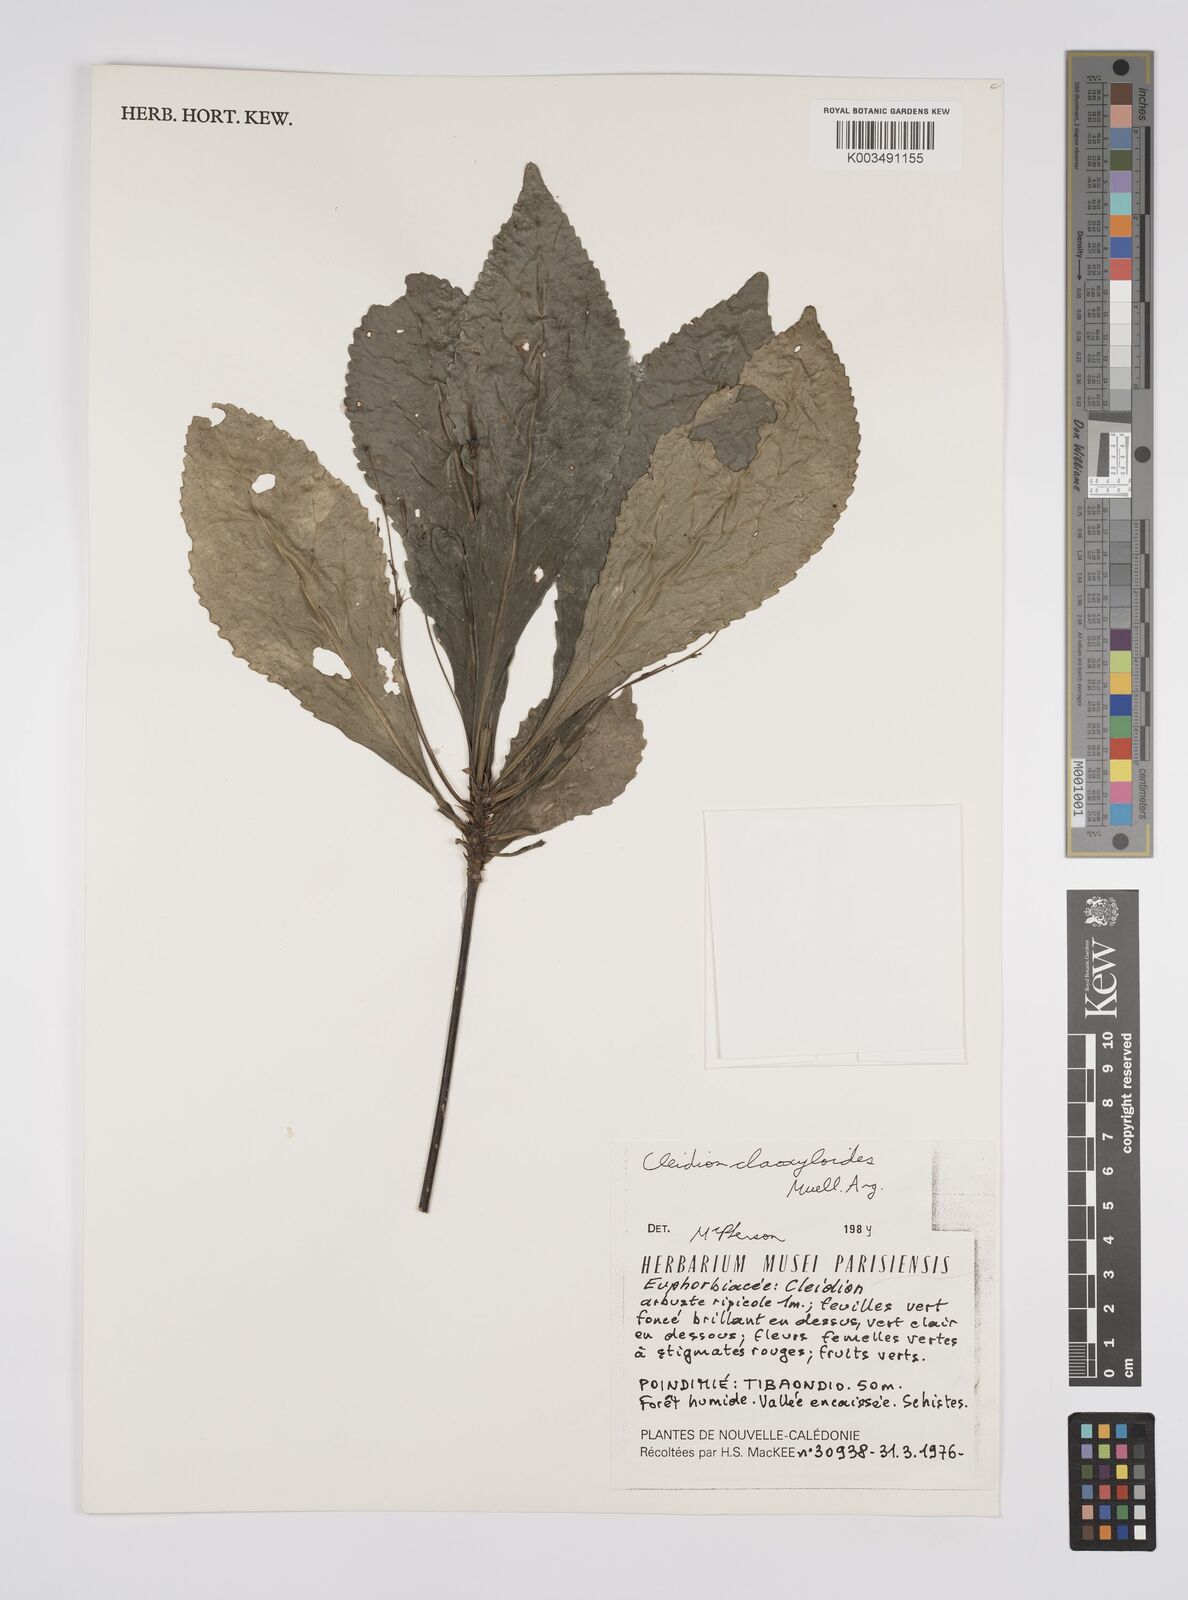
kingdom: Plantae
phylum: Tracheophyta
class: Magnoliopsida
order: Malpighiales
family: Euphorbiaceae
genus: Cleidion
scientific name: Cleidion claoxyloides
